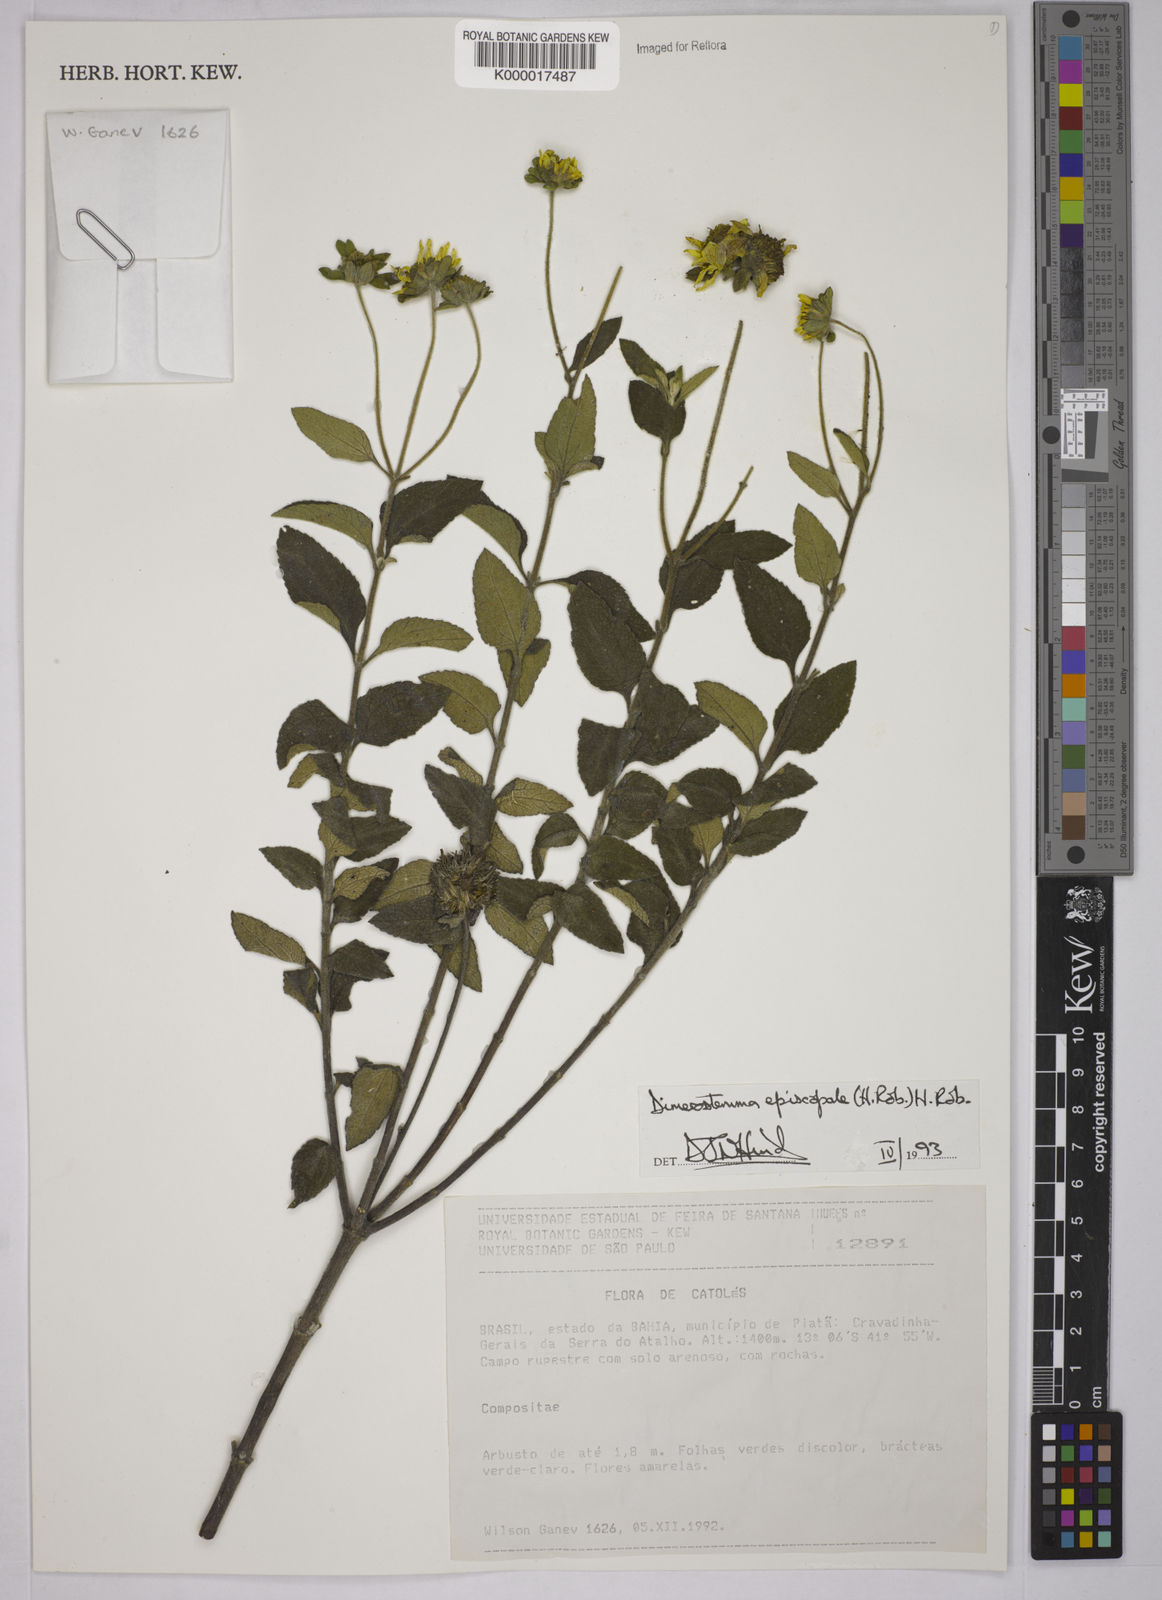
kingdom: Plantae
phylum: Tracheophyta
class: Magnoliopsida
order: Asterales
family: Asteraceae
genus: Dimerostemma
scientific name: Dimerostemma episcopale
